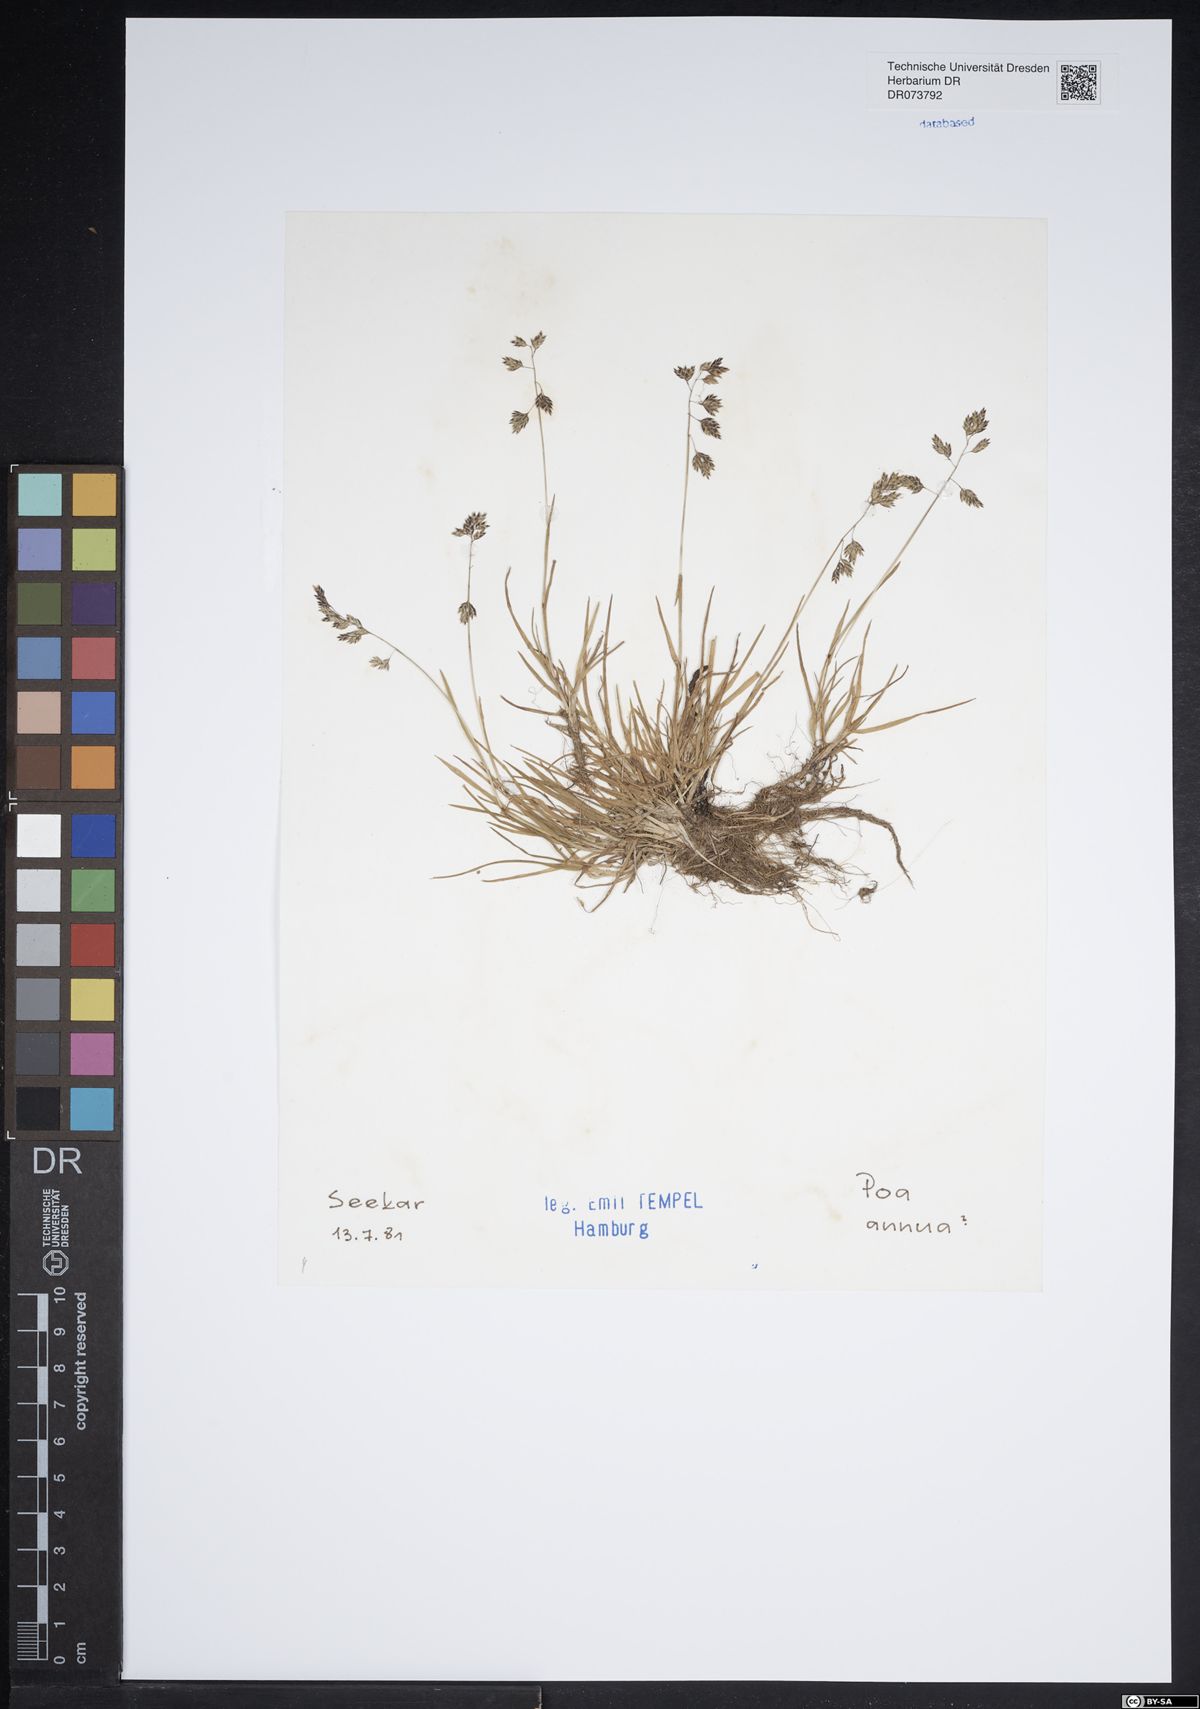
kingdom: Plantae
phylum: Tracheophyta
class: Liliopsida
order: Poales
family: Poaceae
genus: Poa
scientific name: Poa annua
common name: Annual bluegrass
